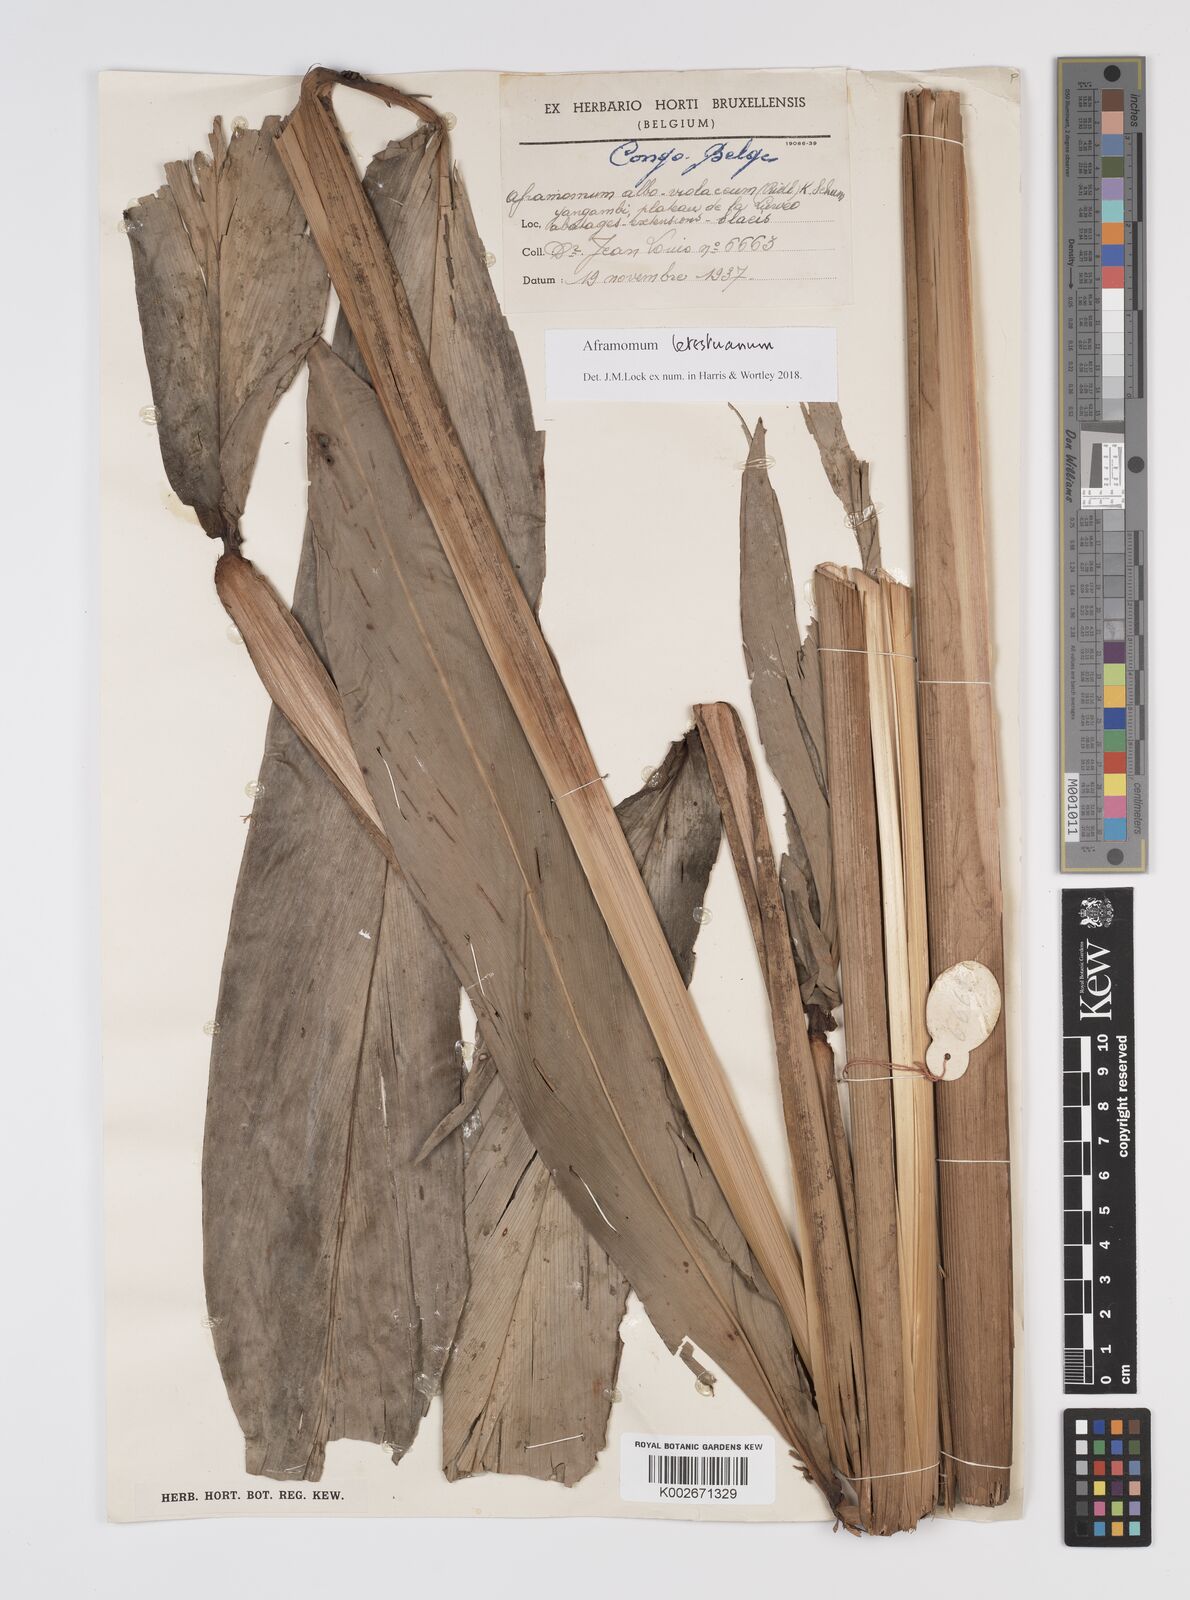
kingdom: Plantae
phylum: Tracheophyta
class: Liliopsida
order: Zingiberales
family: Zingiberaceae
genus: Aframomum
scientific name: Aframomum letestuanum
